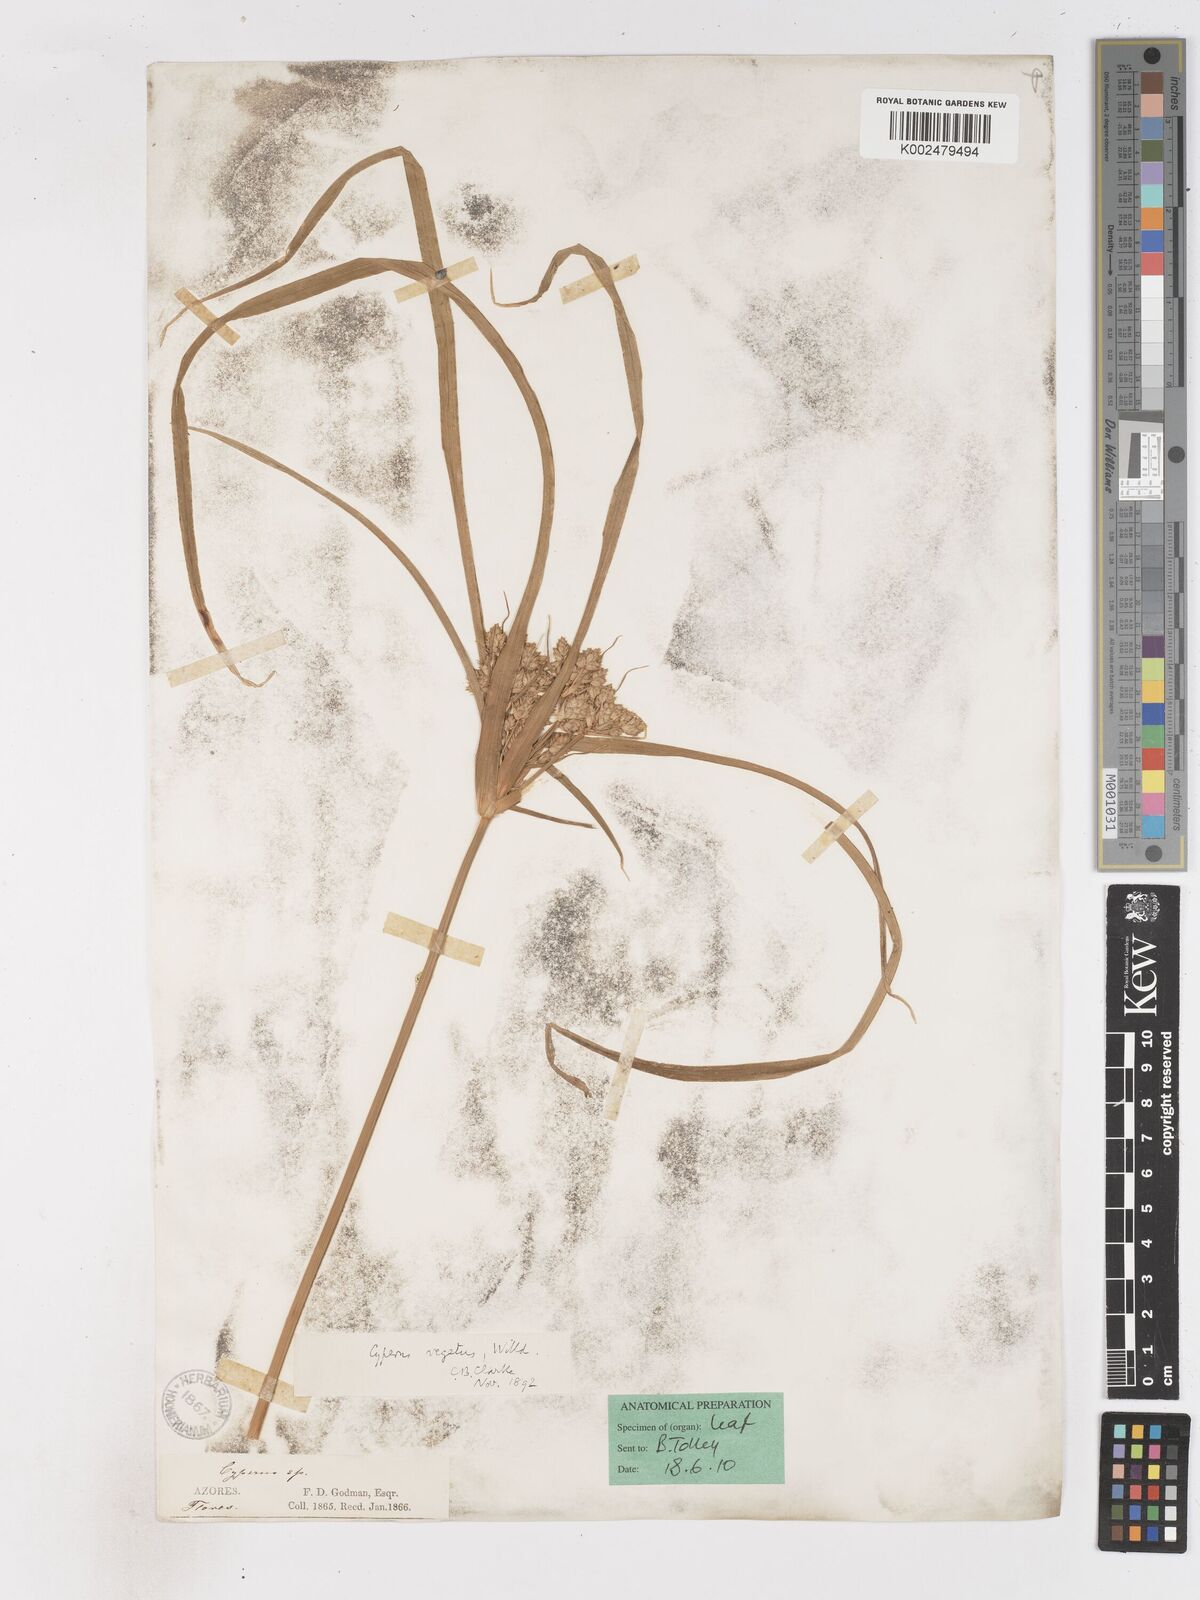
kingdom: Plantae
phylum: Tracheophyta
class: Liliopsida
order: Poales
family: Cyperaceae
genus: Cyperus
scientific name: Cyperus eragrostis
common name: Tall flatsedge
